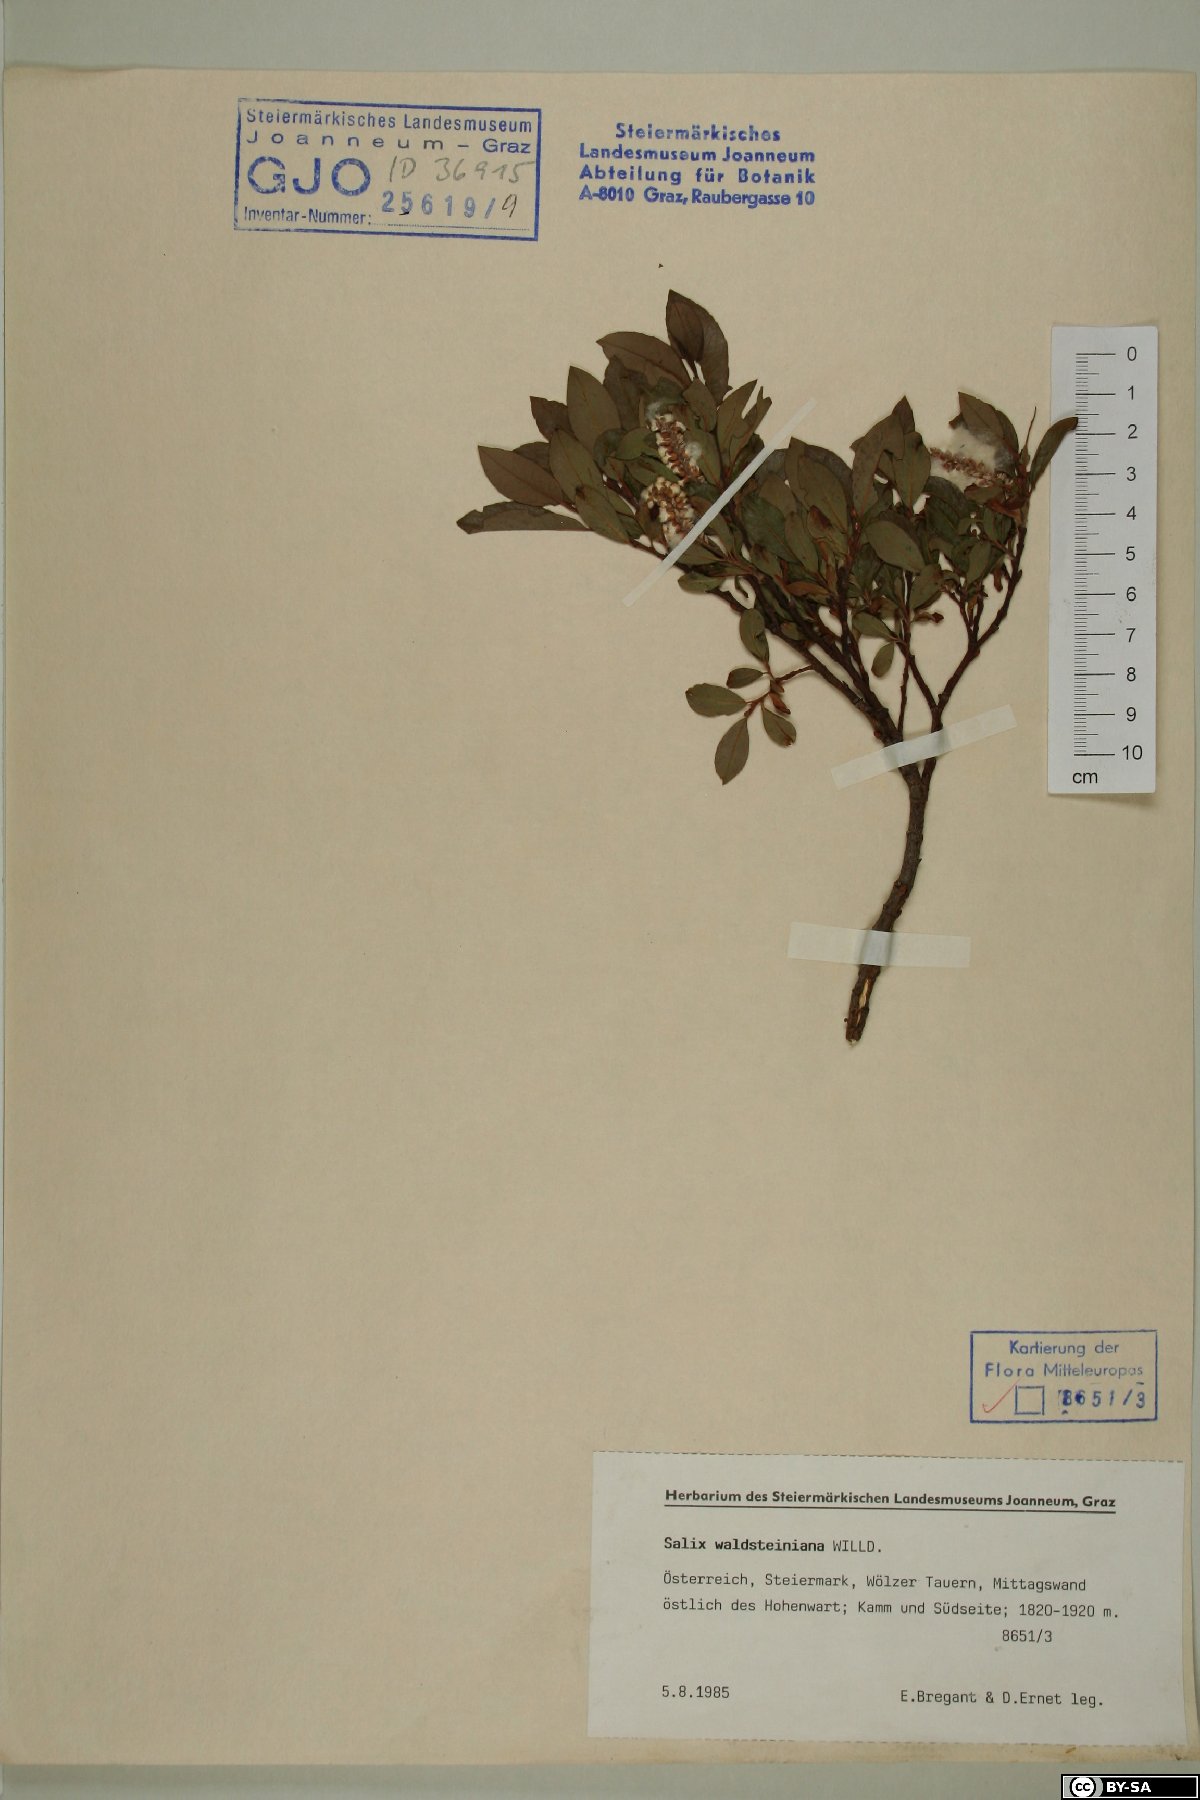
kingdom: Plantae
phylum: Tracheophyta
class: Magnoliopsida
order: Malpighiales
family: Salicaceae
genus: Salix
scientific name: Salix waldsteiniana
